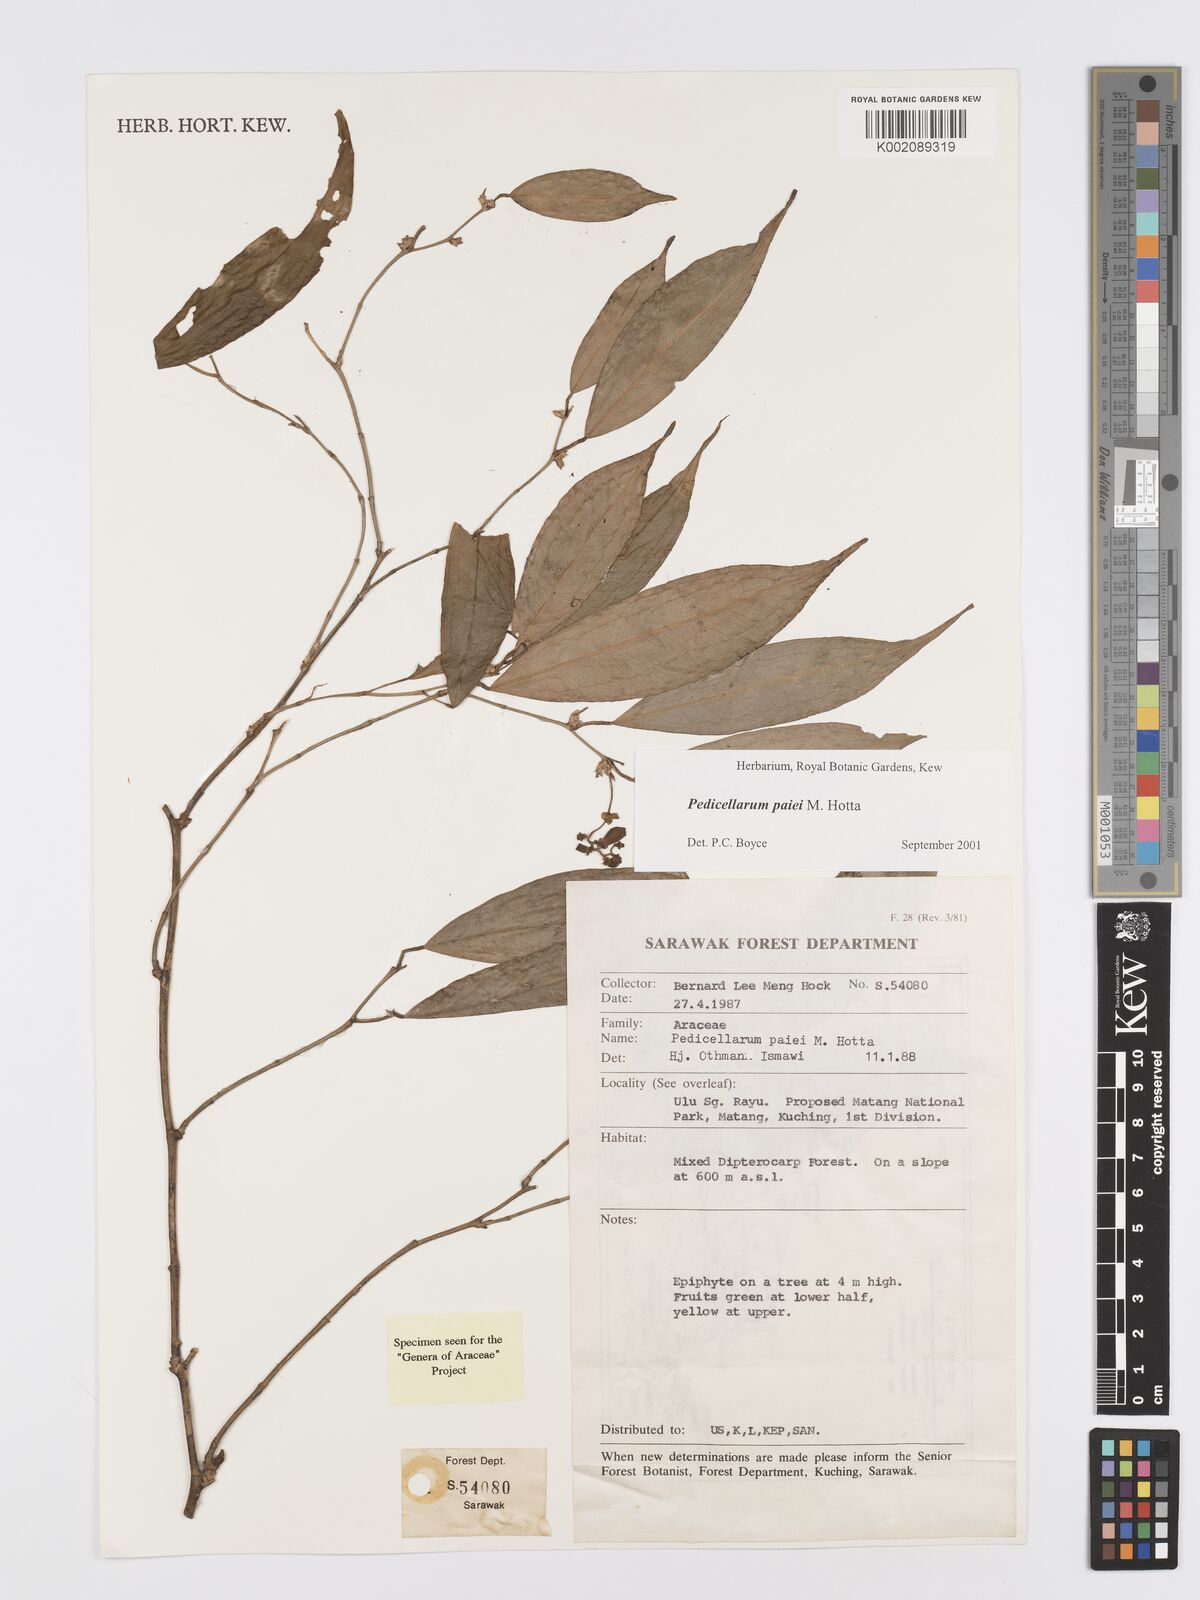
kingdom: Plantae
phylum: Tracheophyta
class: Liliopsida
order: Alismatales
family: Araceae
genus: Pothos
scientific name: Pothos paiei
